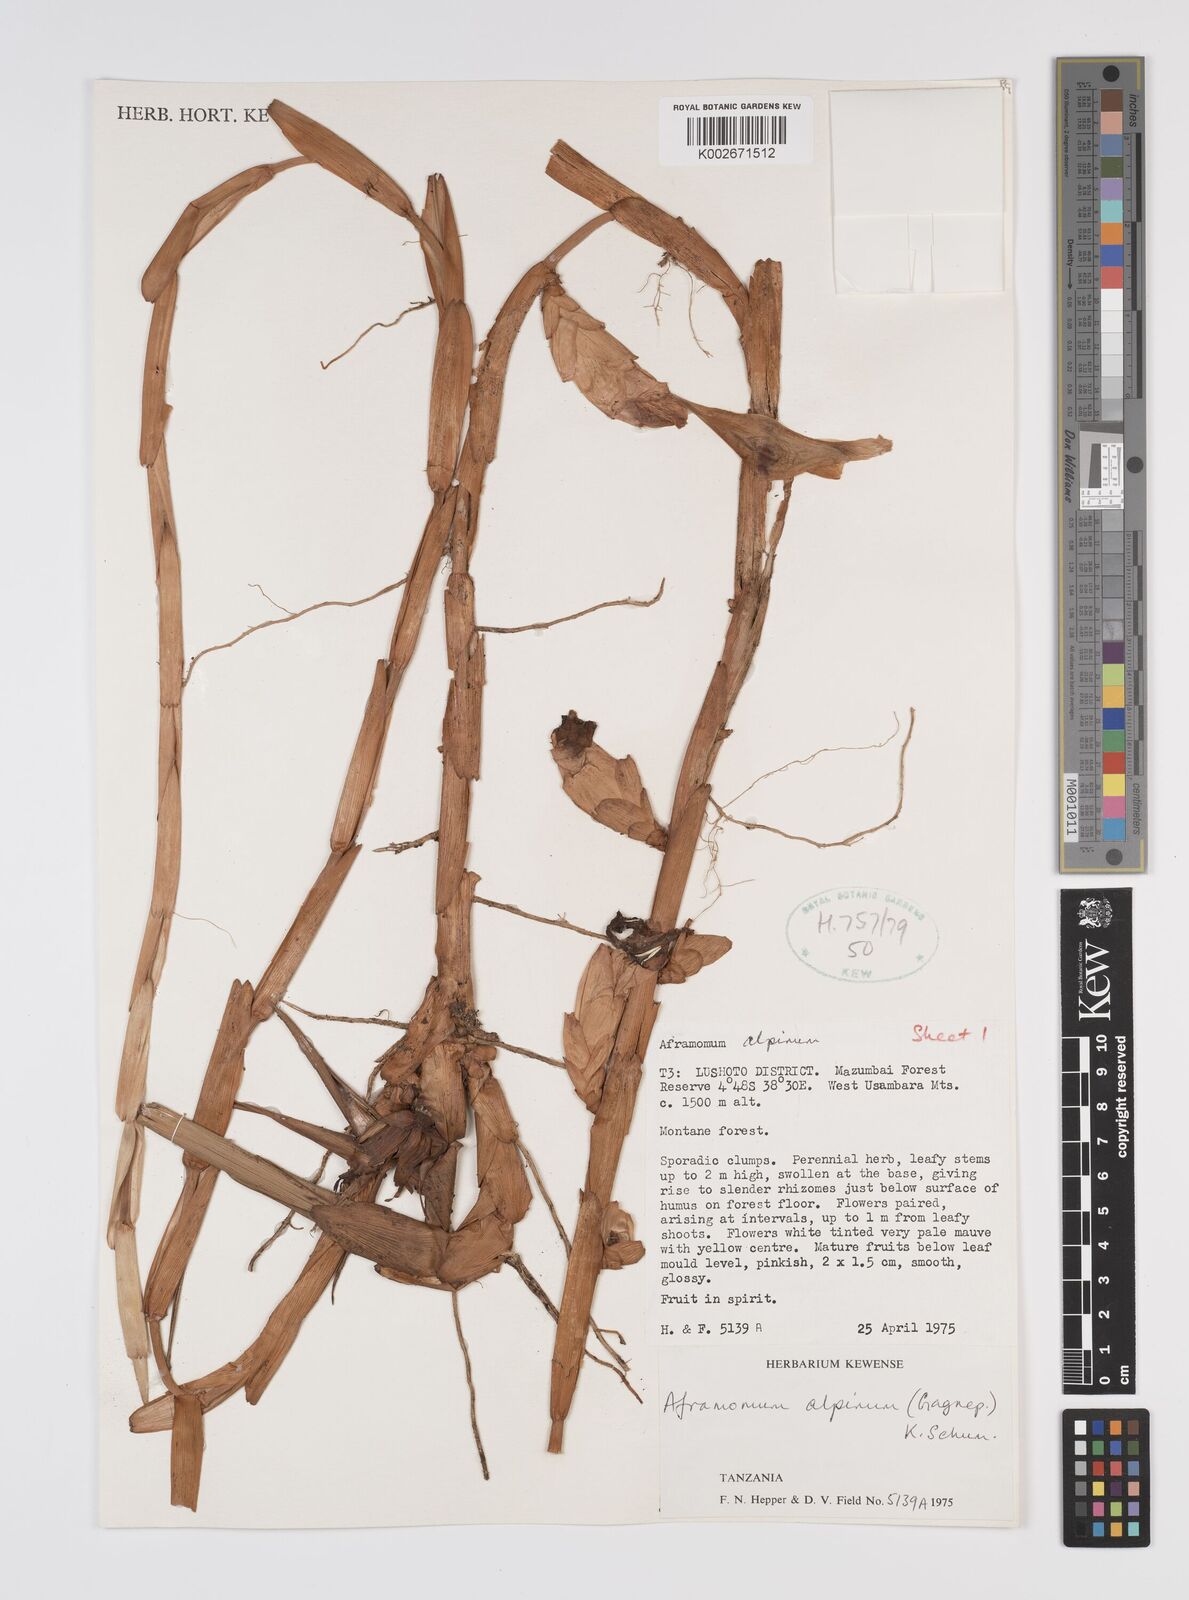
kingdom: Plantae
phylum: Tracheophyta
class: Liliopsida
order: Zingiberales
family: Zingiberaceae
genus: Aframomum
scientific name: Aframomum alpinum
